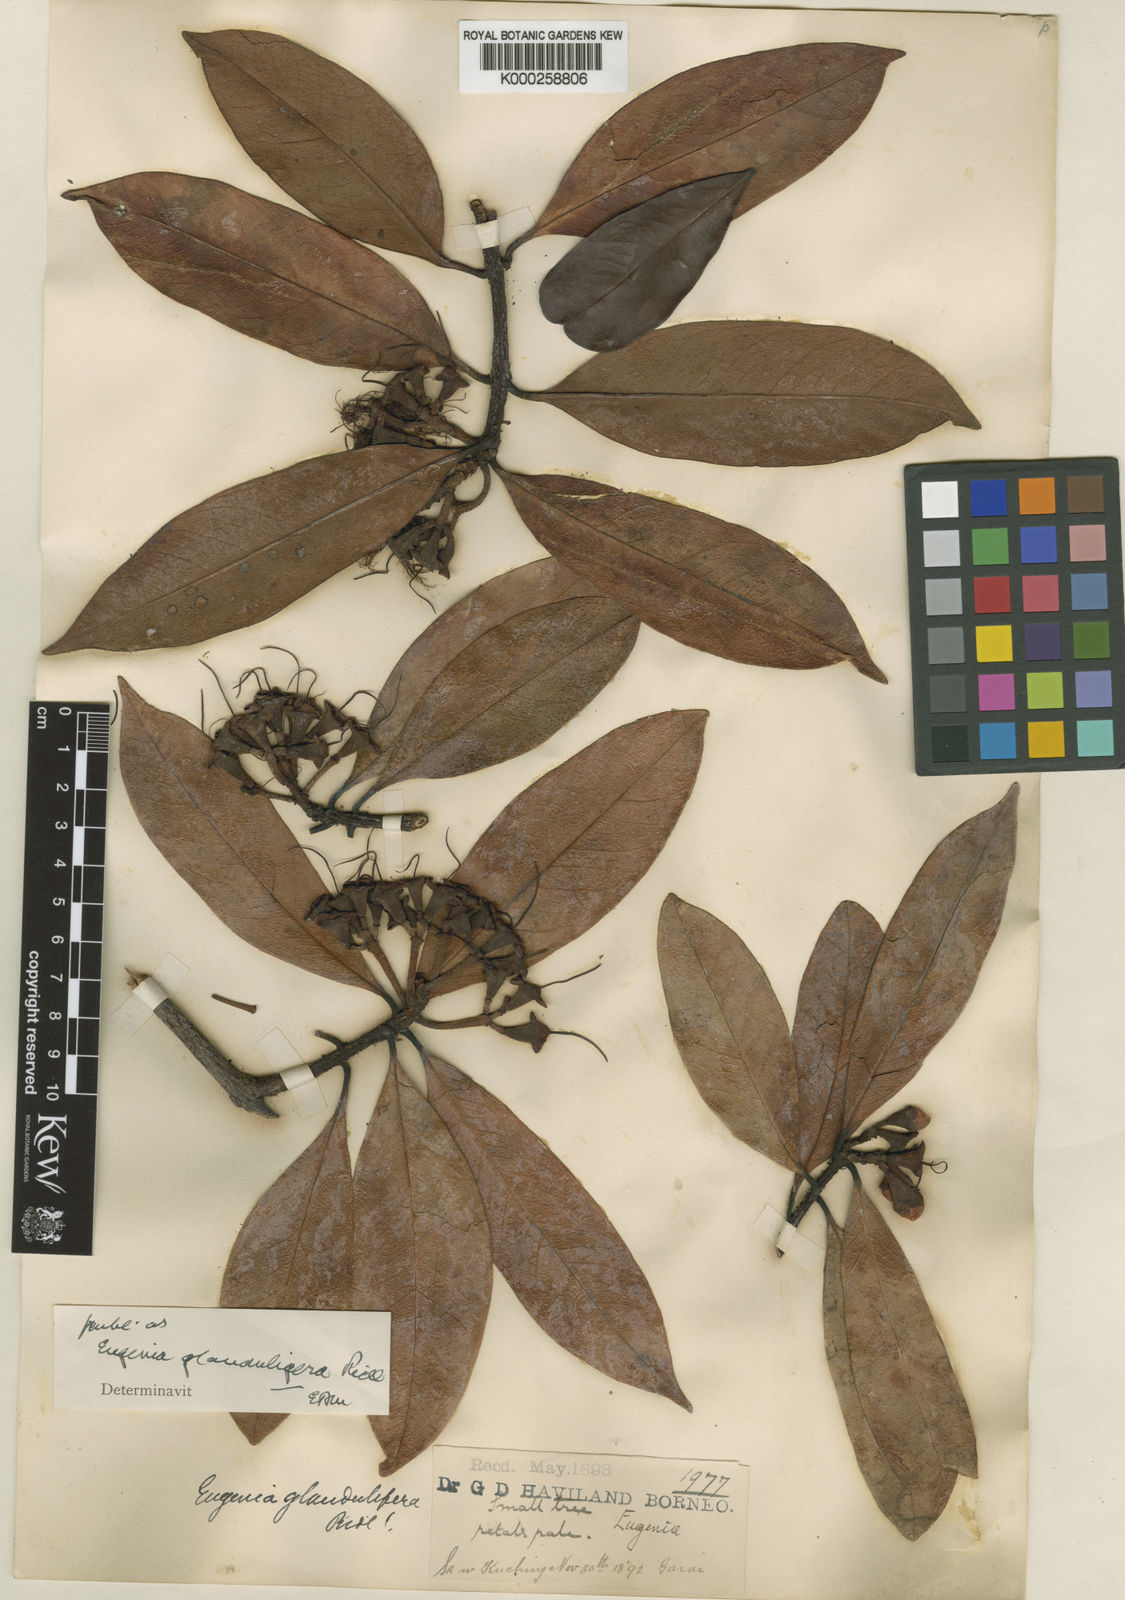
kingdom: Plantae
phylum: Tracheophyta
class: Magnoliopsida
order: Myrtales
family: Myrtaceae
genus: Syzygium
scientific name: Syzygium glanduligerum
